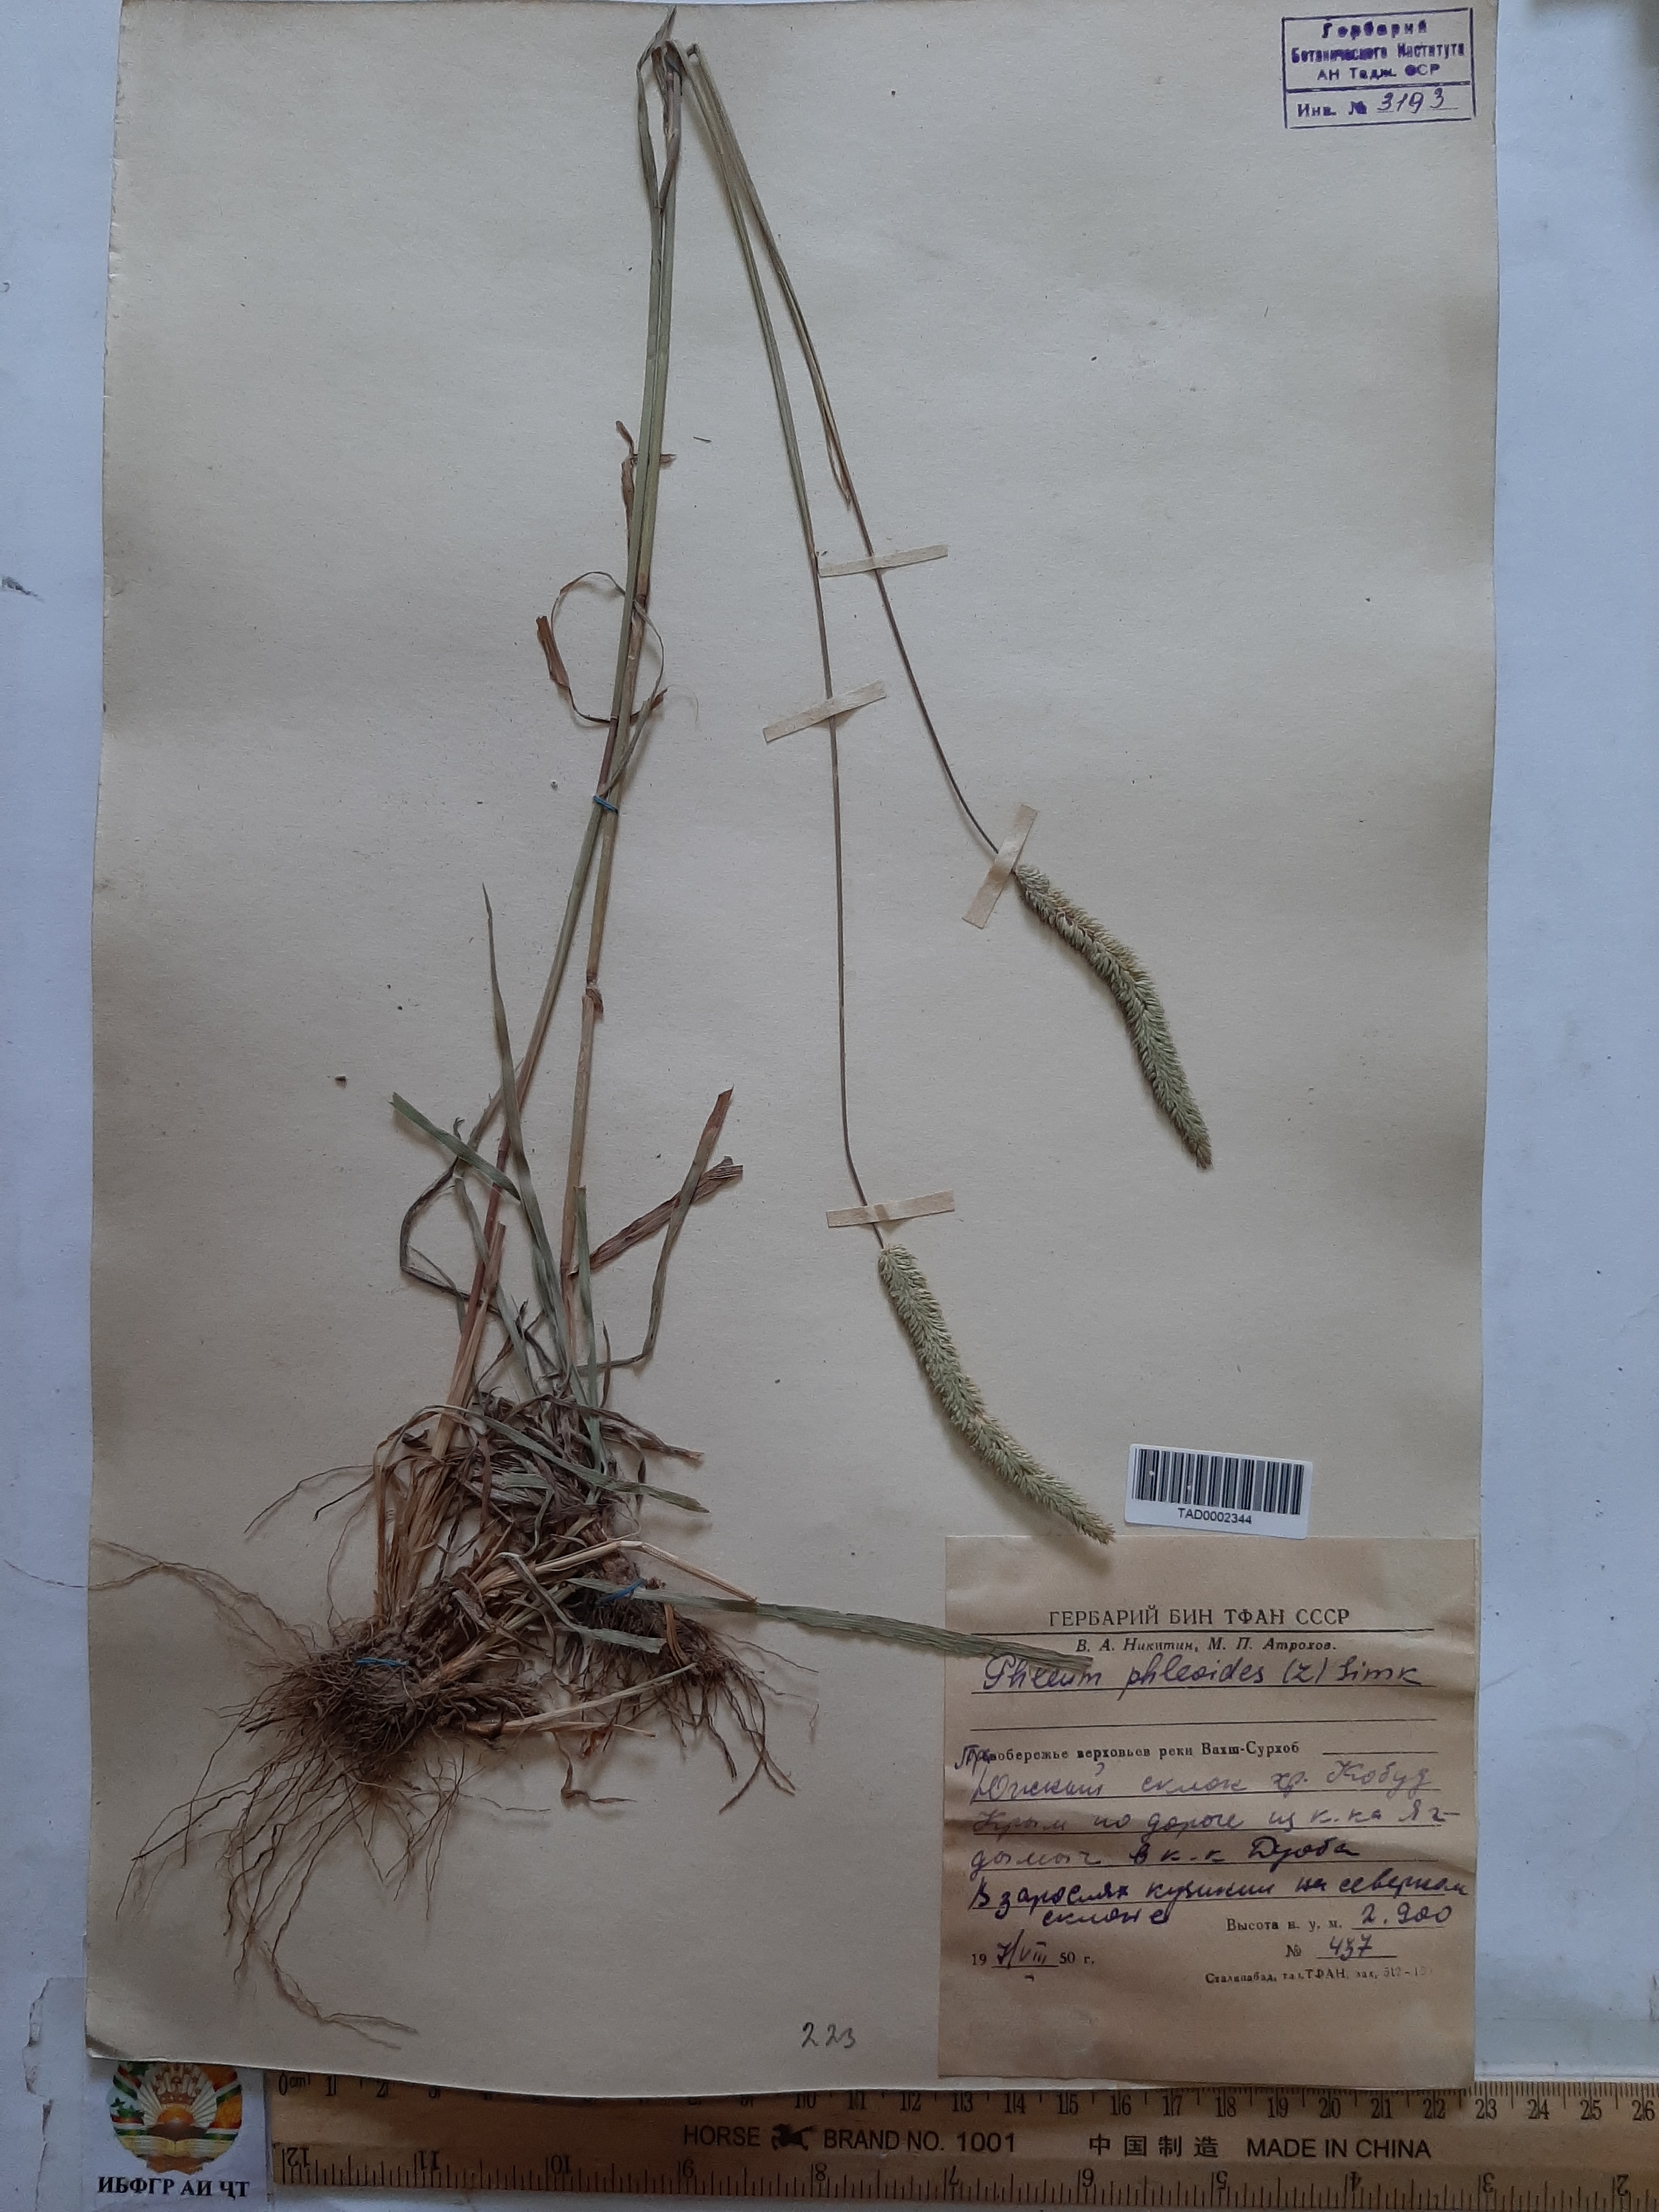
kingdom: Plantae
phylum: Tracheophyta
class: Liliopsida
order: Poales
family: Poaceae
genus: Phleum
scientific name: Phleum phleoides
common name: Purple-stem cat's-tail
